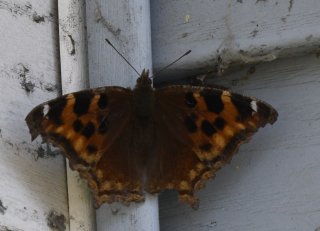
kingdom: Animalia
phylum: Arthropoda
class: Insecta
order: Lepidoptera
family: Nymphalidae
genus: Polygonia
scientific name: Polygonia vaualbum
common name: Compton Tortoiseshell
